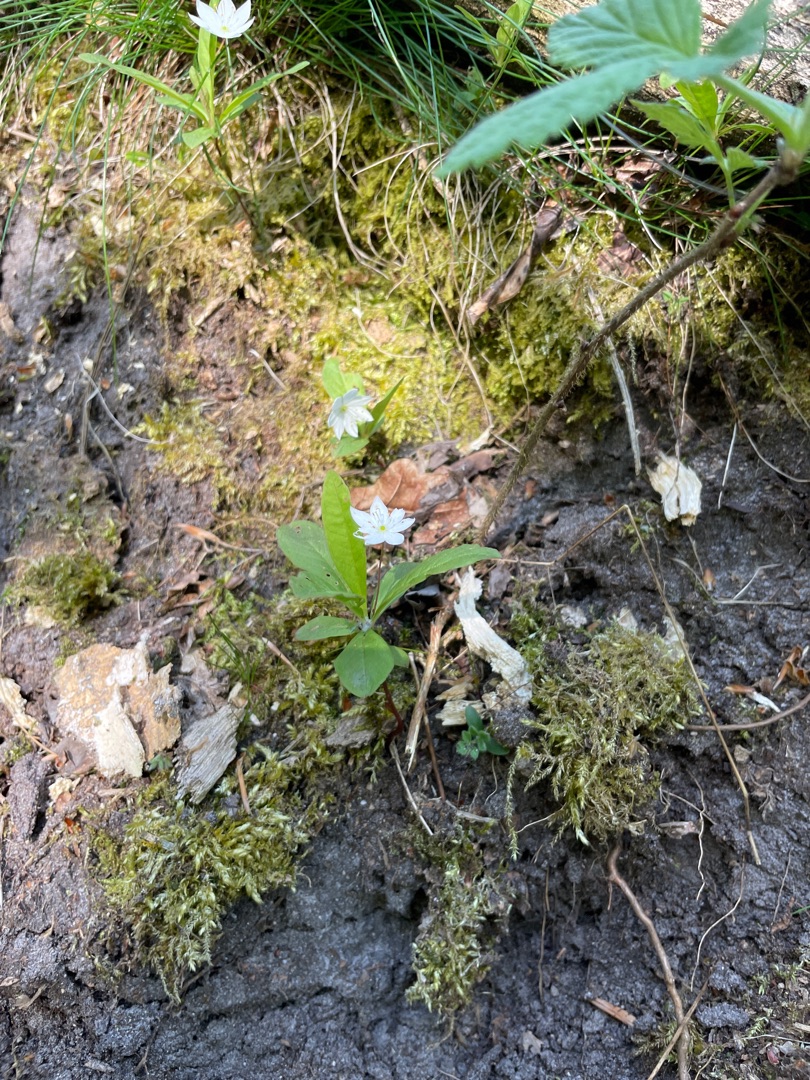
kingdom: Plantae
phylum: Tracheophyta
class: Magnoliopsida
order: Ericales
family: Primulaceae
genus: Lysimachia
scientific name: Lysimachia europaea
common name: Skovstjerne
